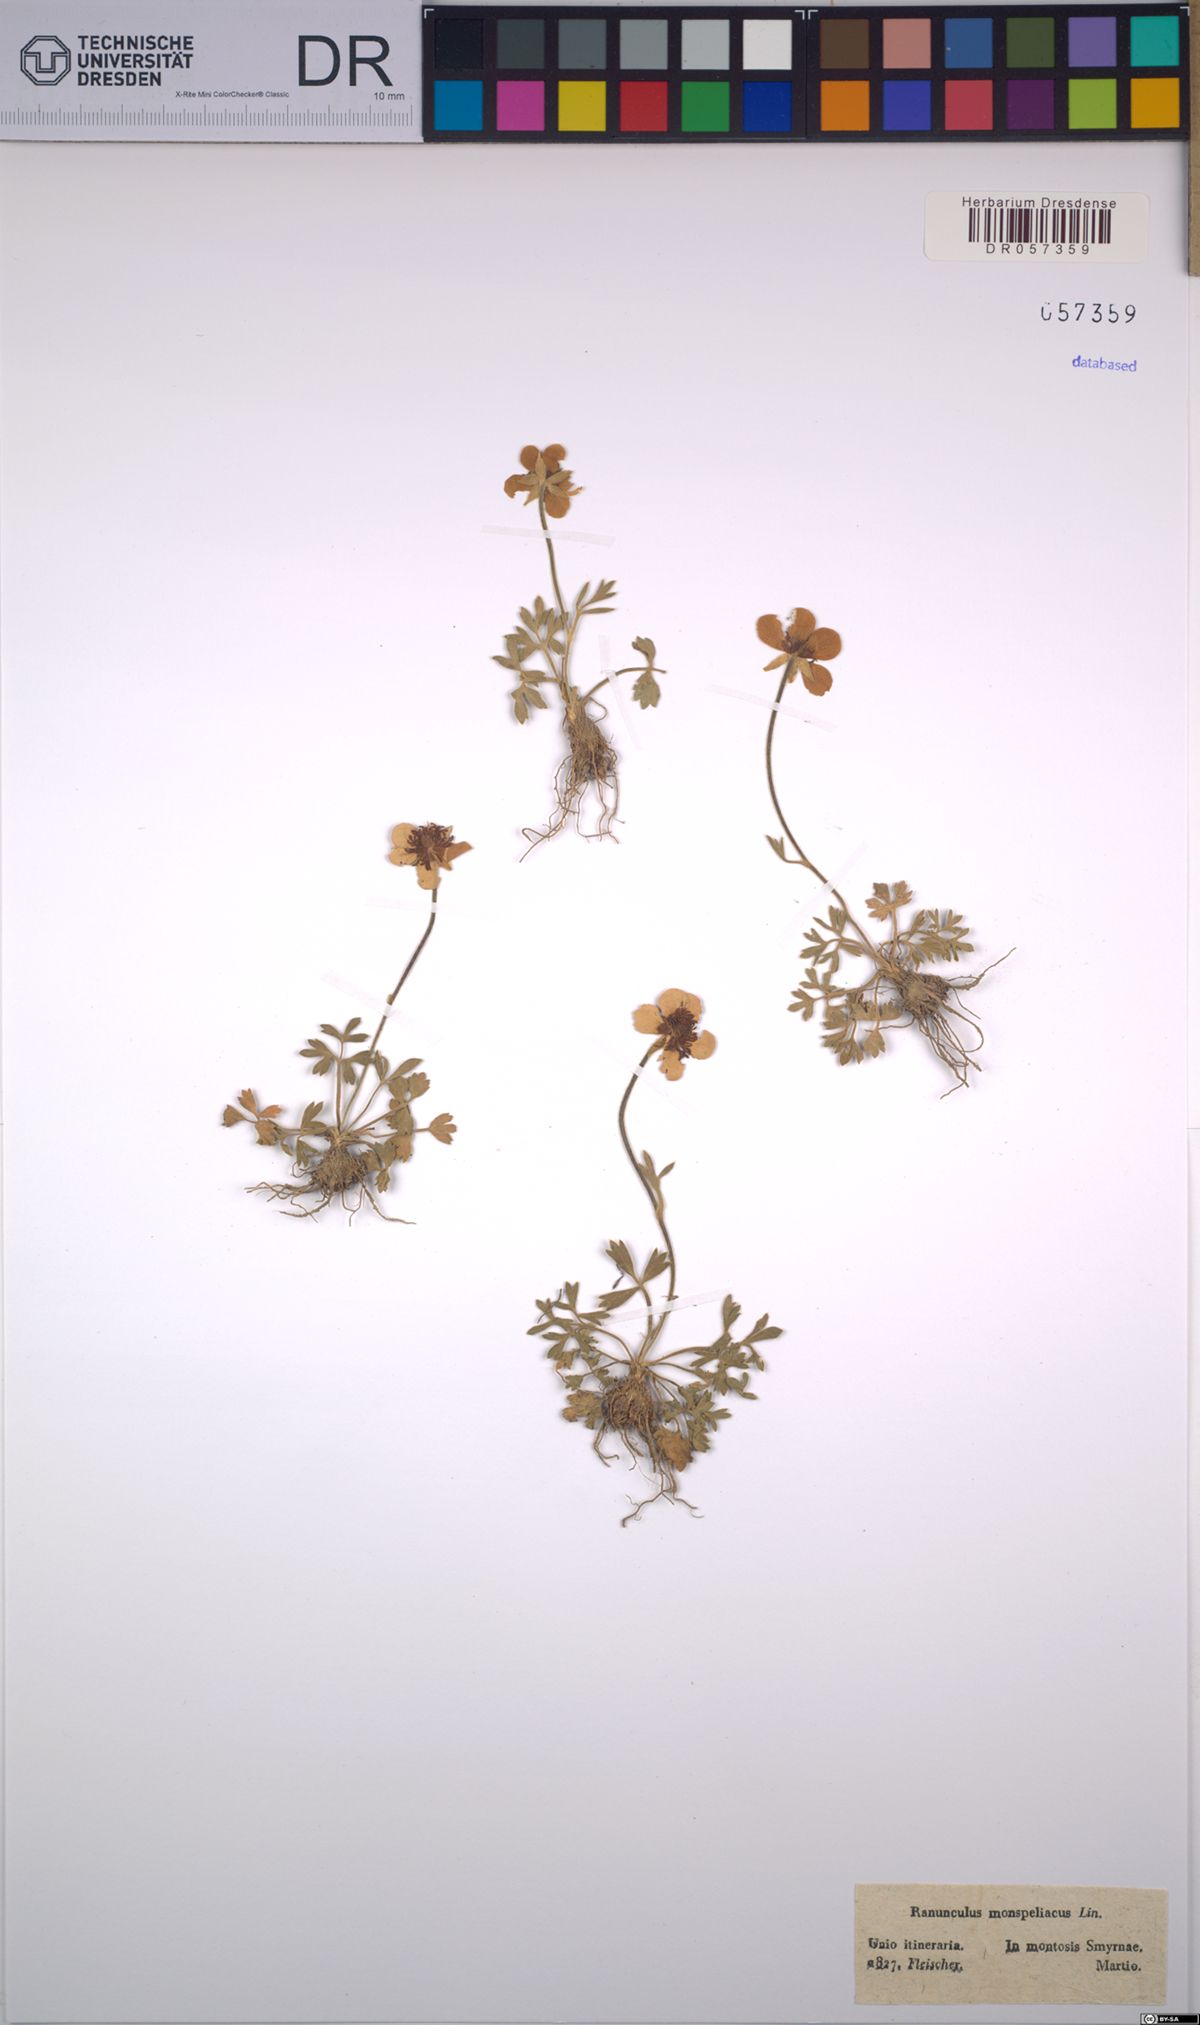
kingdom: Plantae
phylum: Tracheophyta
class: Magnoliopsida
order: Ranunculales
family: Ranunculaceae
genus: Ranunculus
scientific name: Ranunculus monspeliacus
